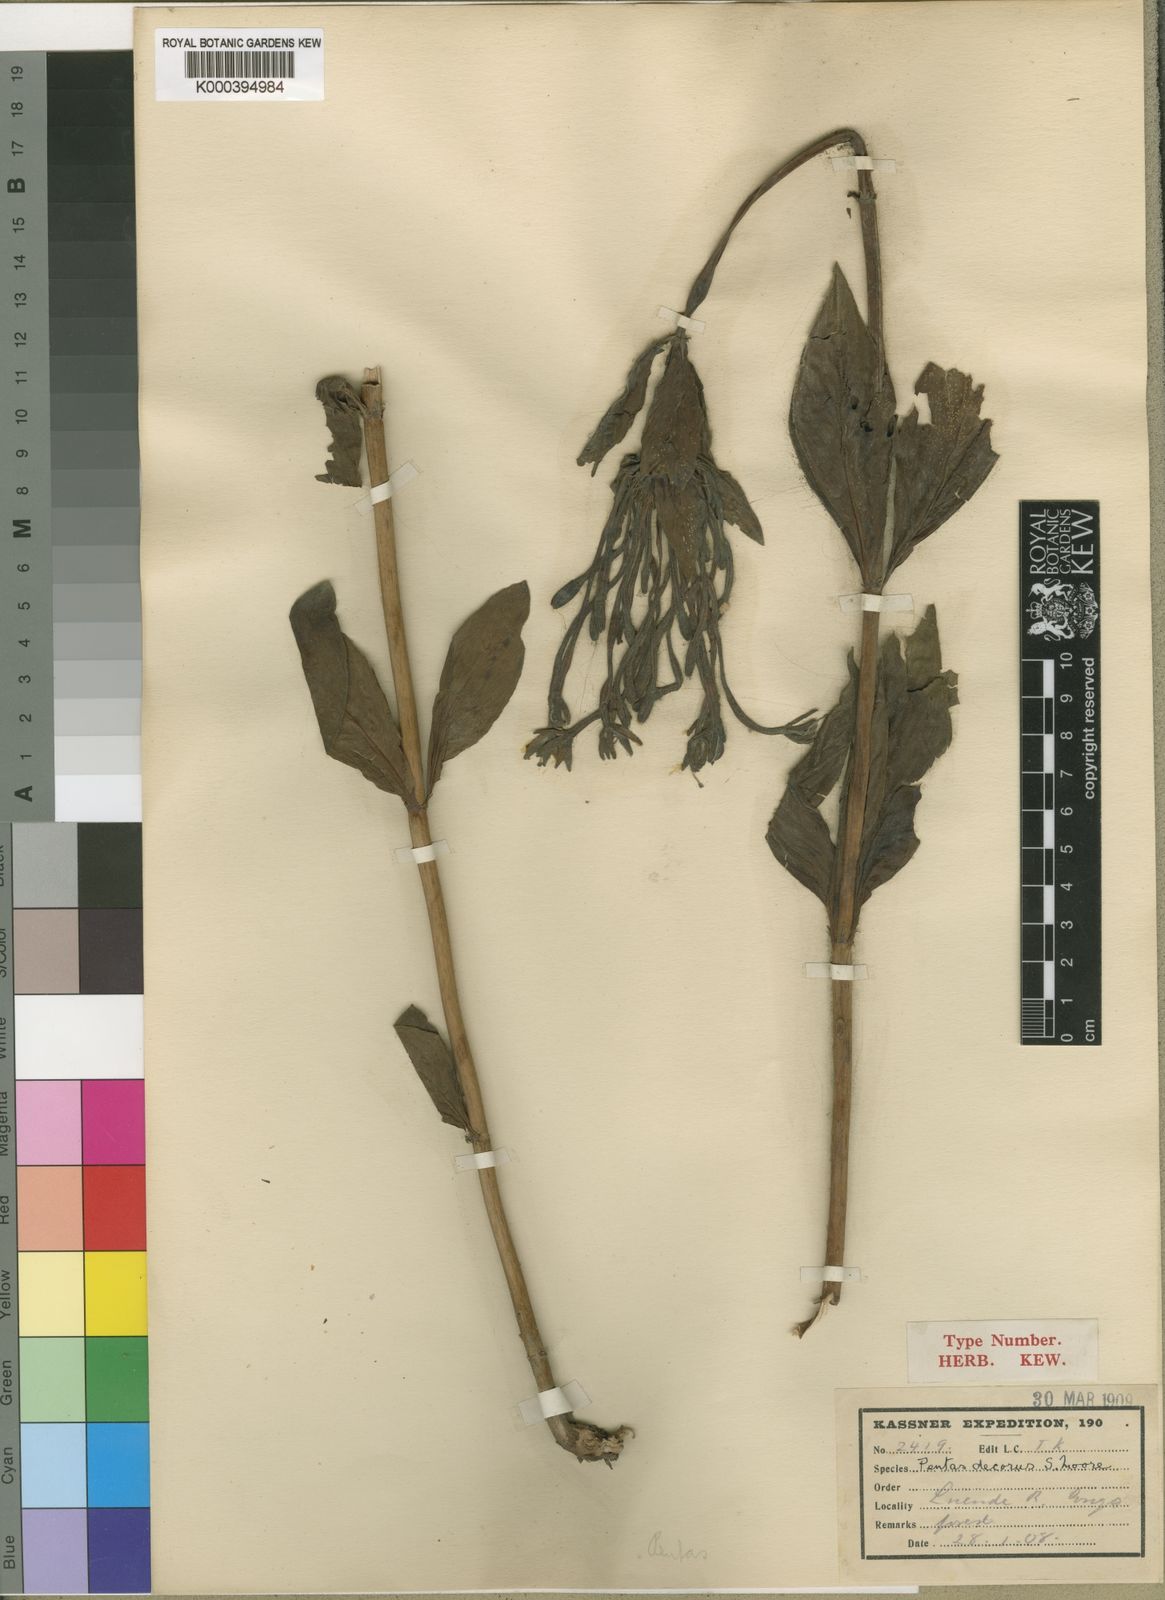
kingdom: Plantae
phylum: Tracheophyta
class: Magnoliopsida
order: Gentianales
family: Rubiaceae
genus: Dolichopentas
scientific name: Dolichopentas
